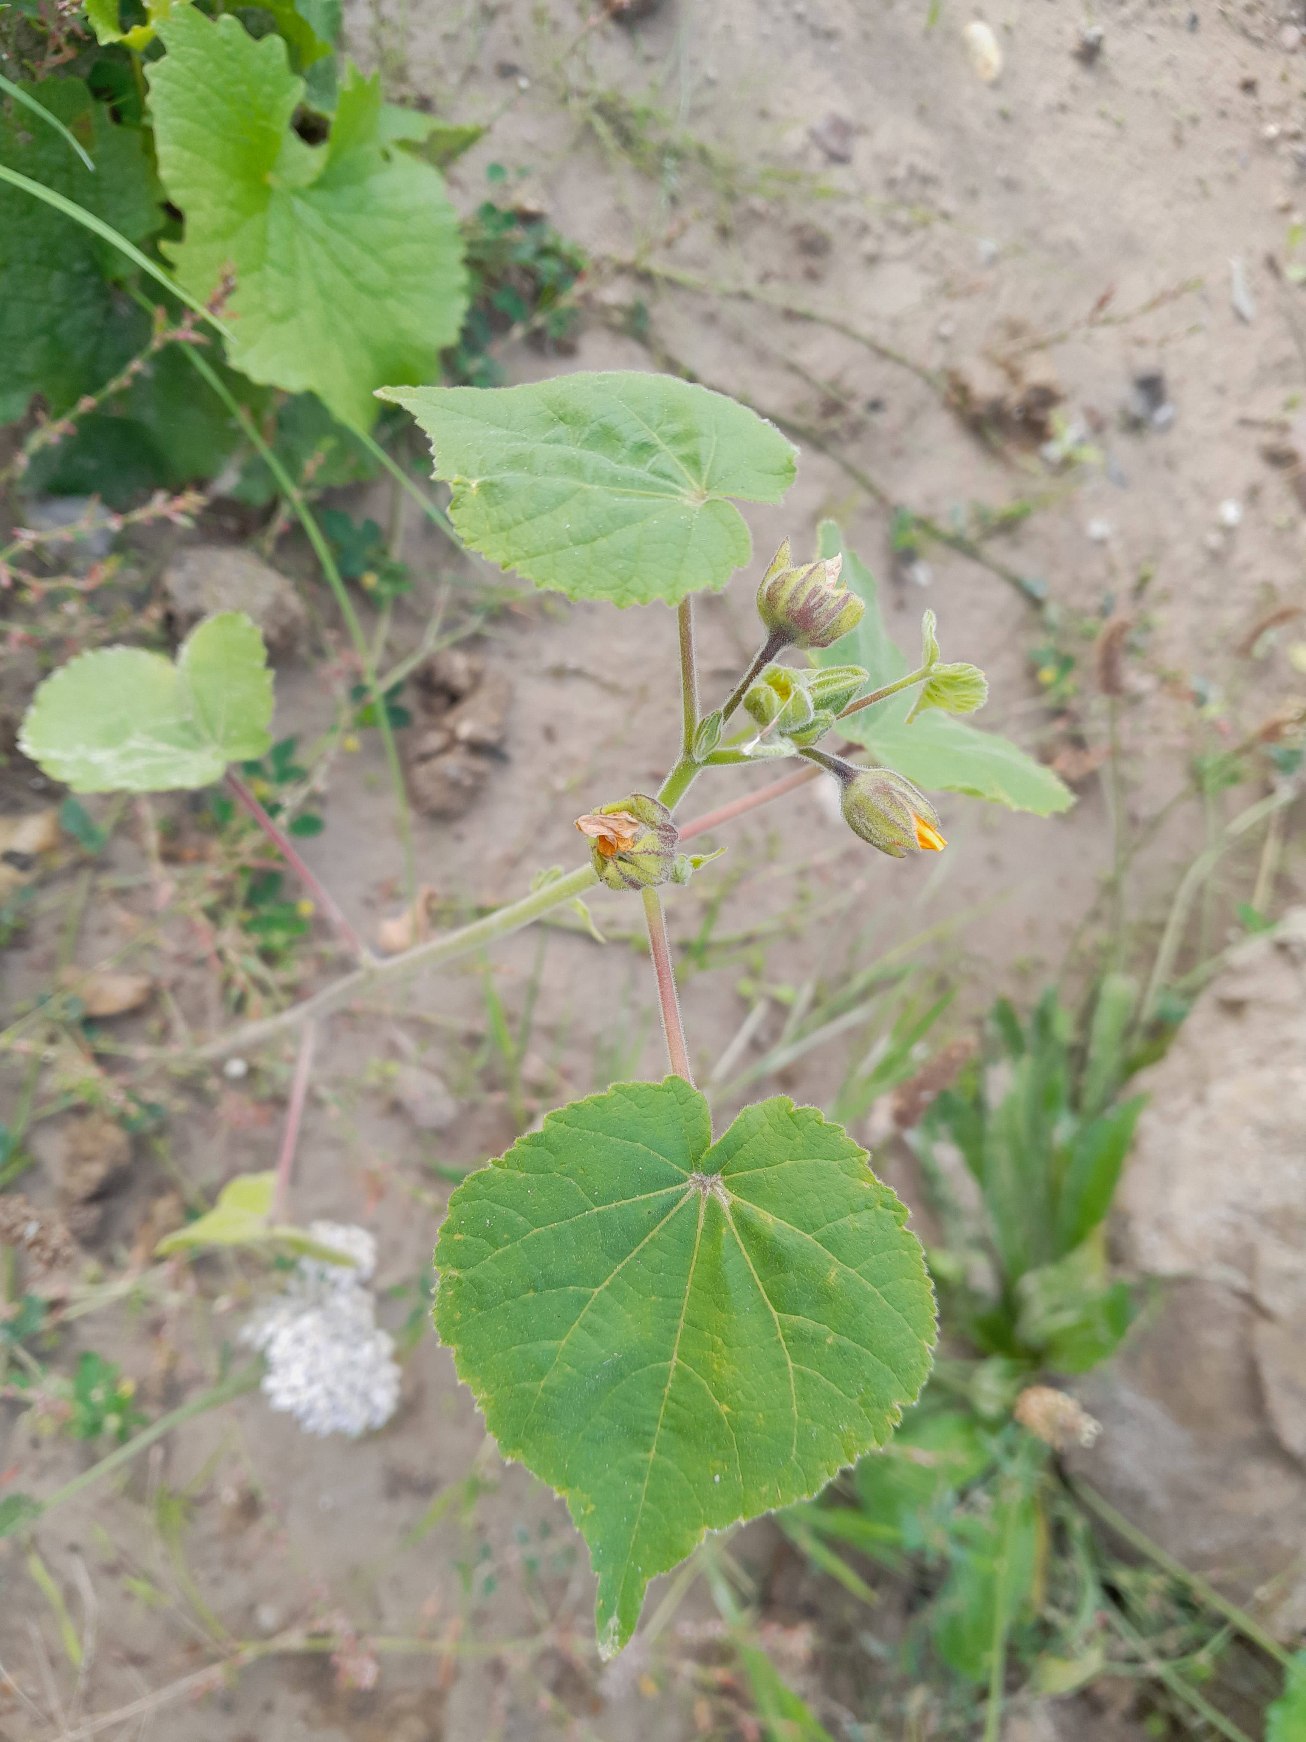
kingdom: Plantae
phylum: Tracheophyta
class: Magnoliopsida
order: Malvales
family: Malvaceae
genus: Abutilon
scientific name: Abutilon theophrasti
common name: Kinajute
